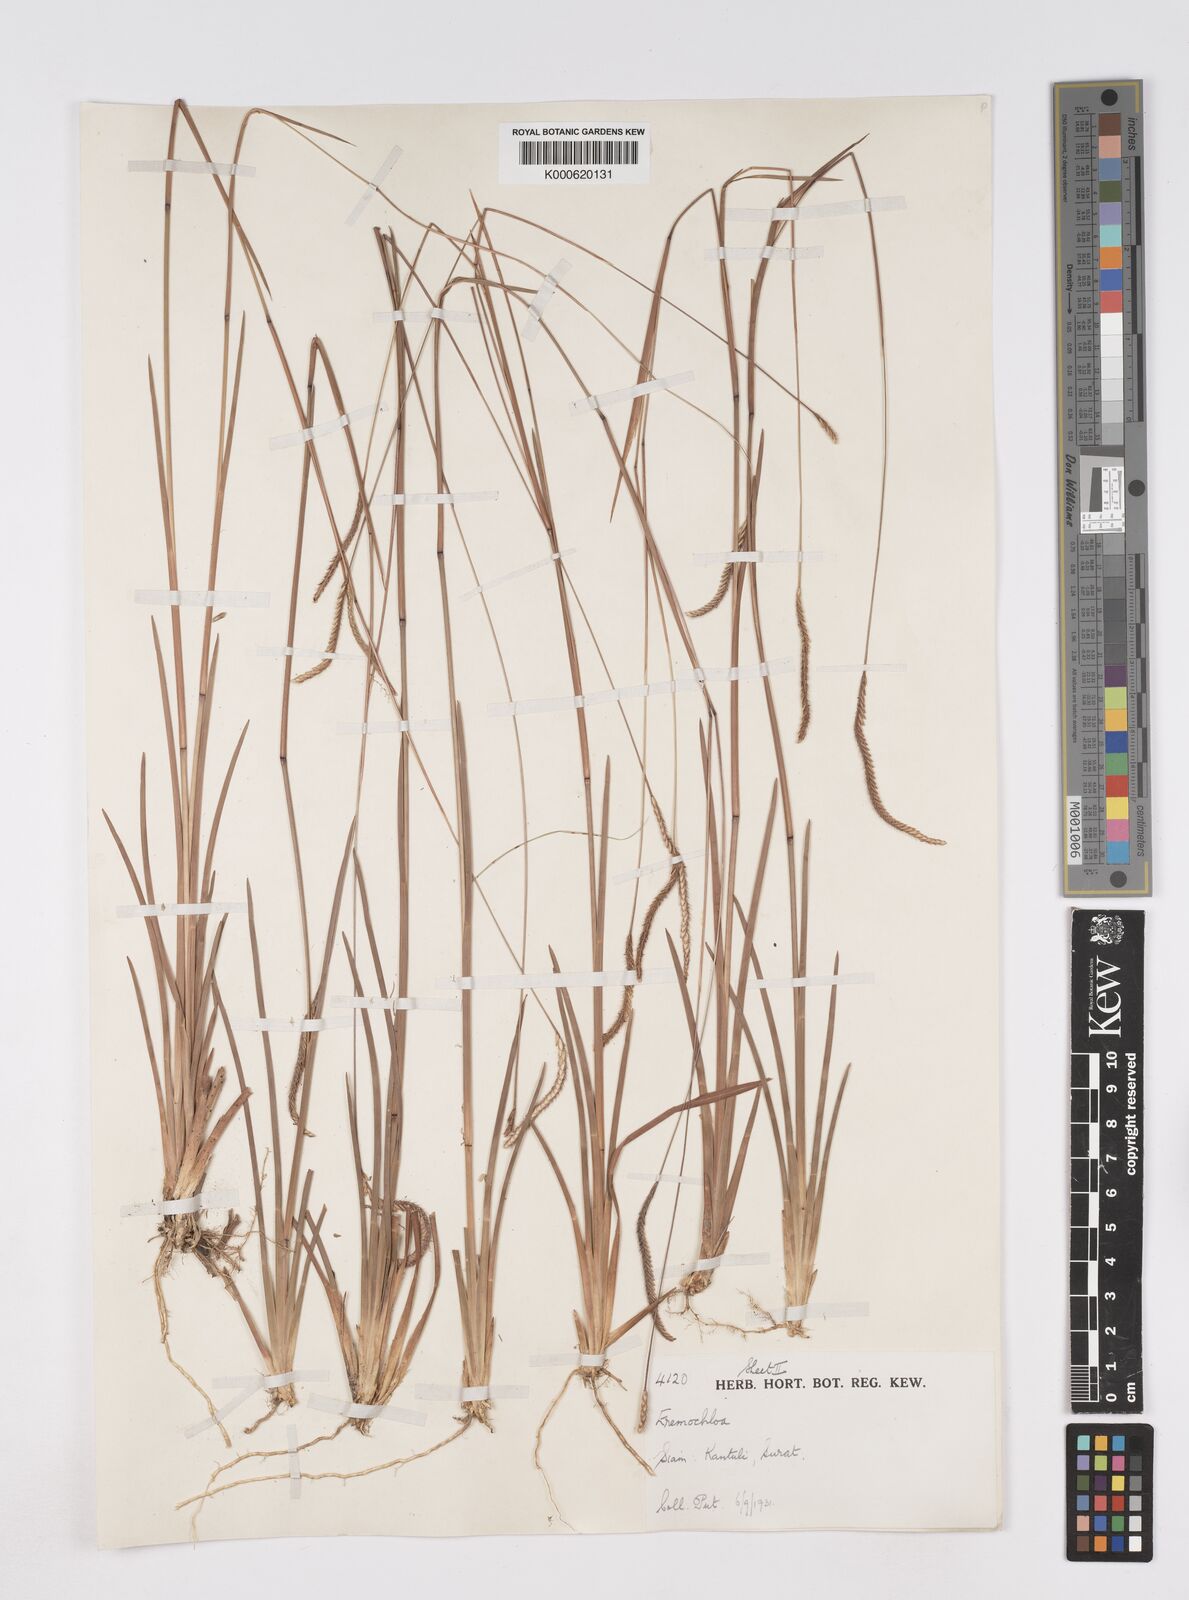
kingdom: Plantae
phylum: Tracheophyta
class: Liliopsida
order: Poales
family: Poaceae
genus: Eremochloa
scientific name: Eremochloa ciliaris
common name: Fringed centipede grass
